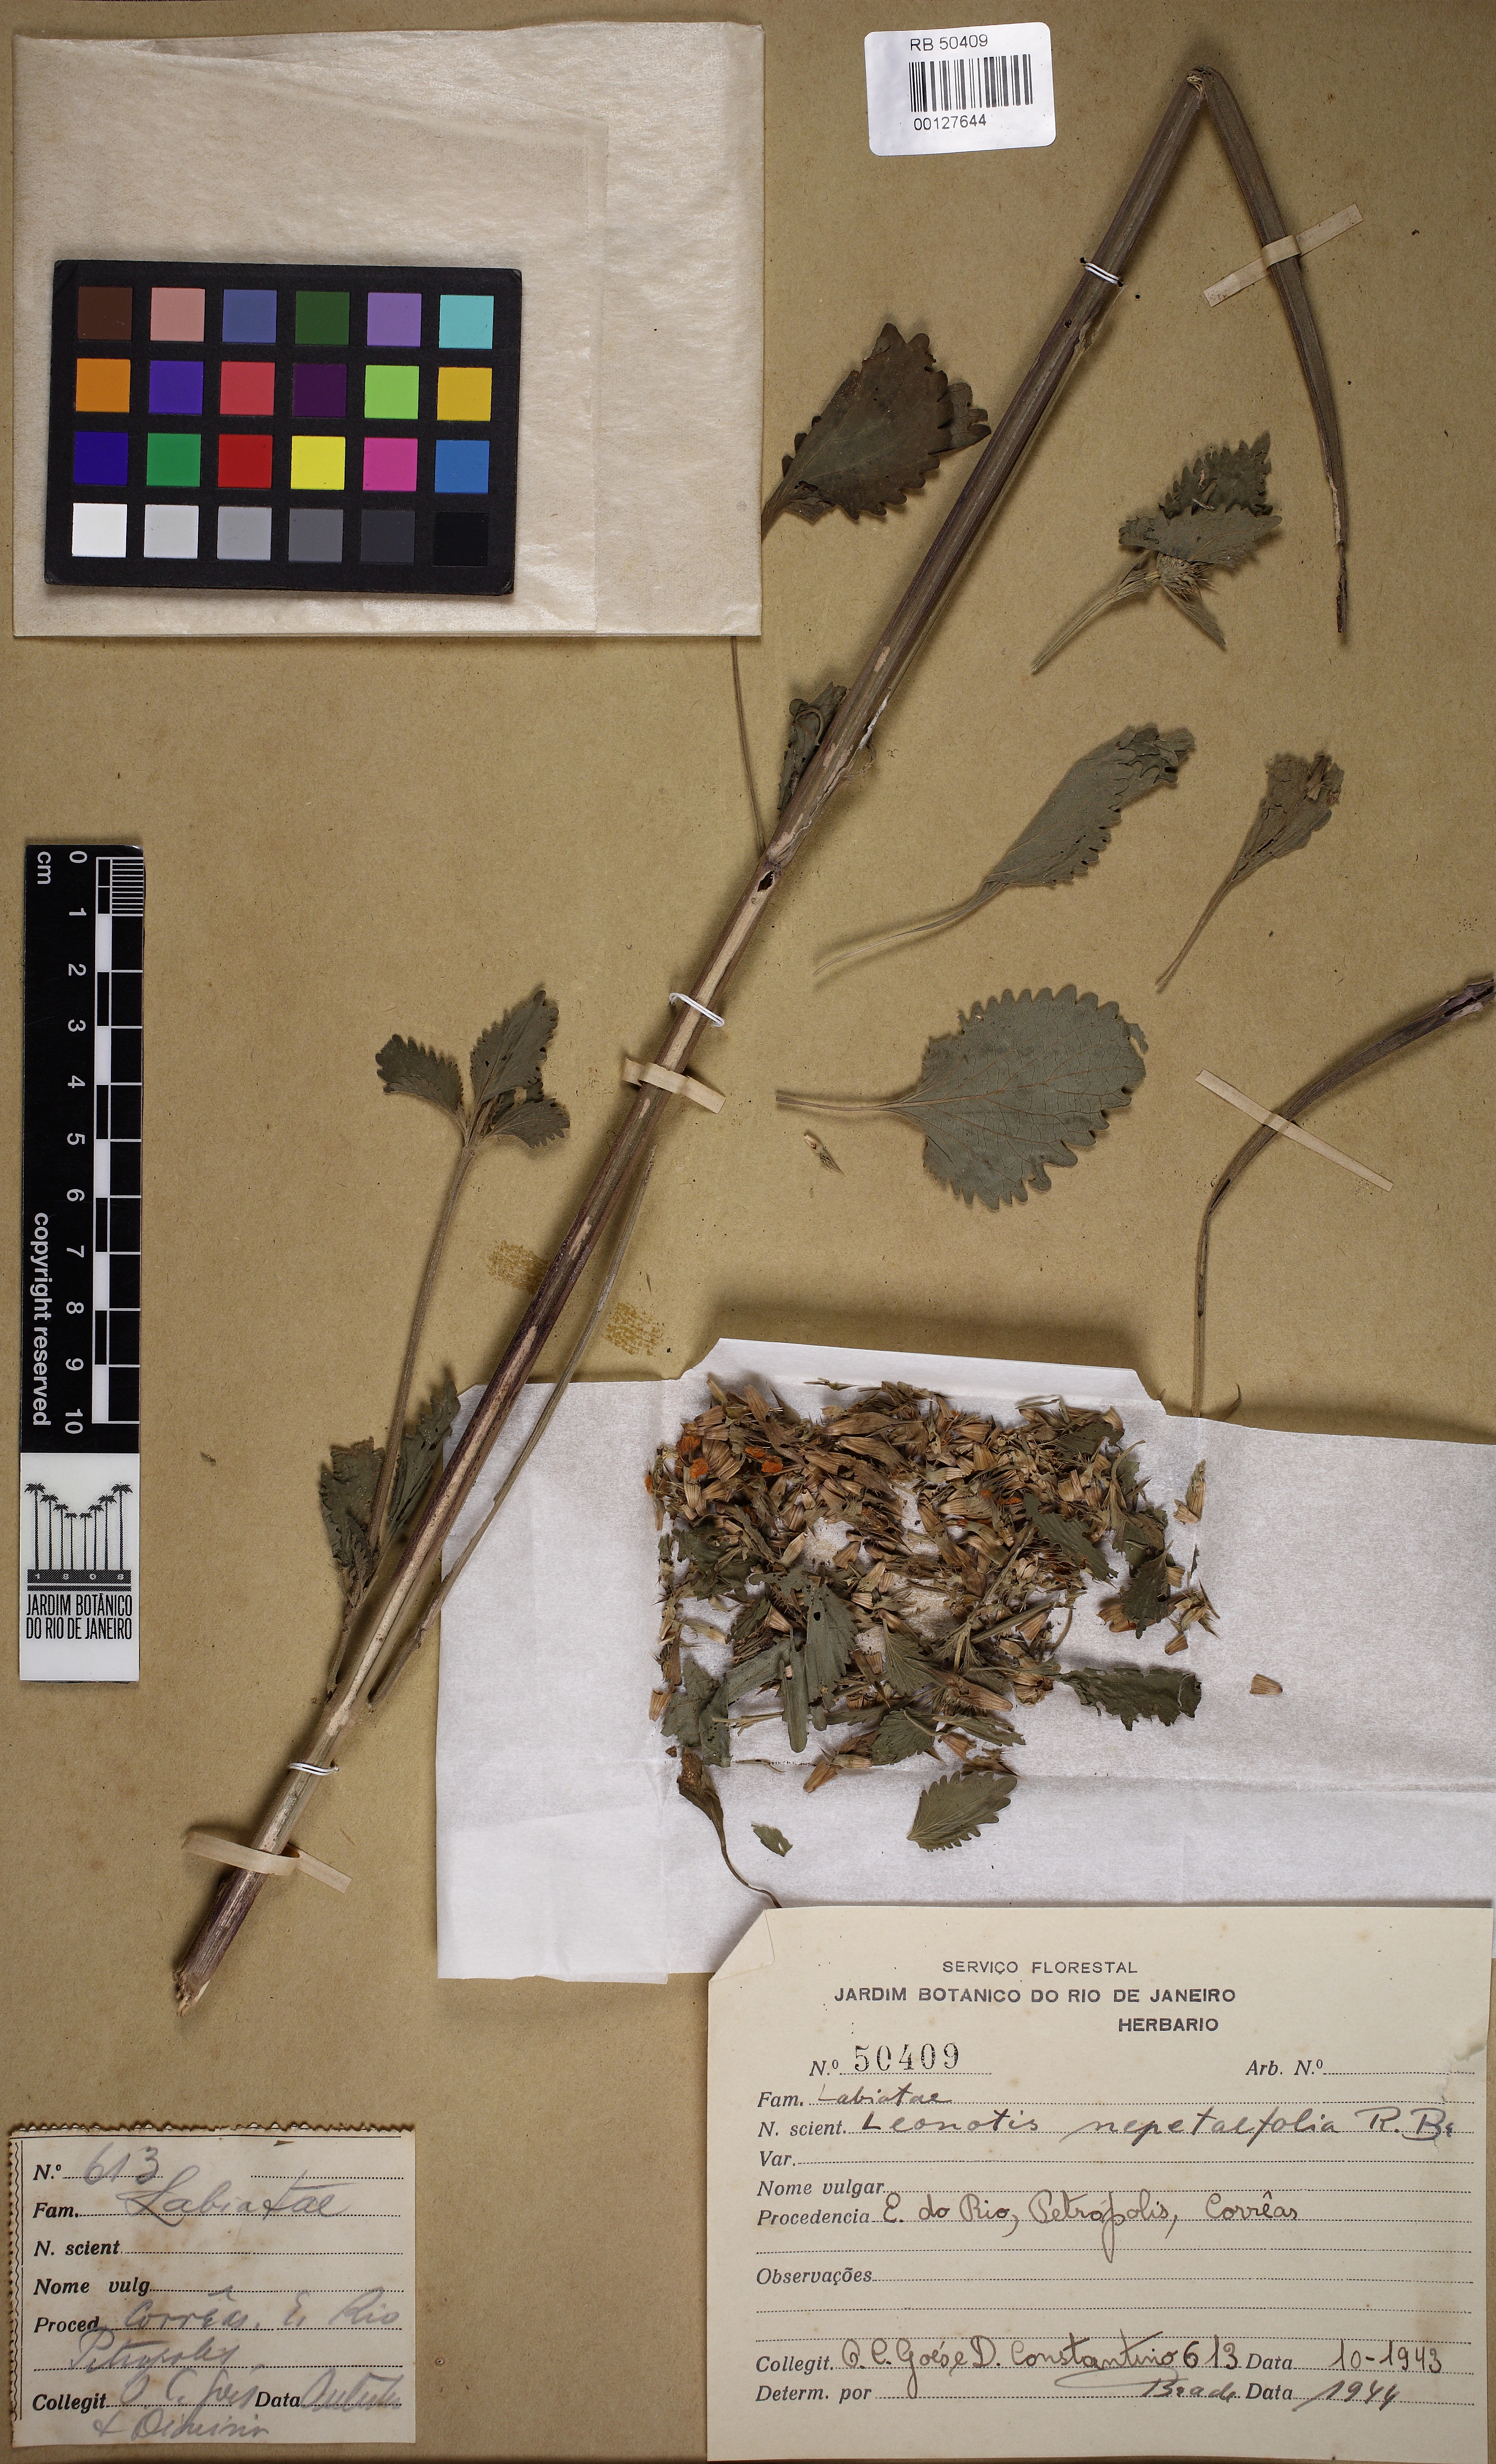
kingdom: Plantae
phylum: Tracheophyta
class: Magnoliopsida
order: Lamiales
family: Lamiaceae
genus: Leonotis
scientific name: Leonotis nepetifolia
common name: Christmas candlestick
